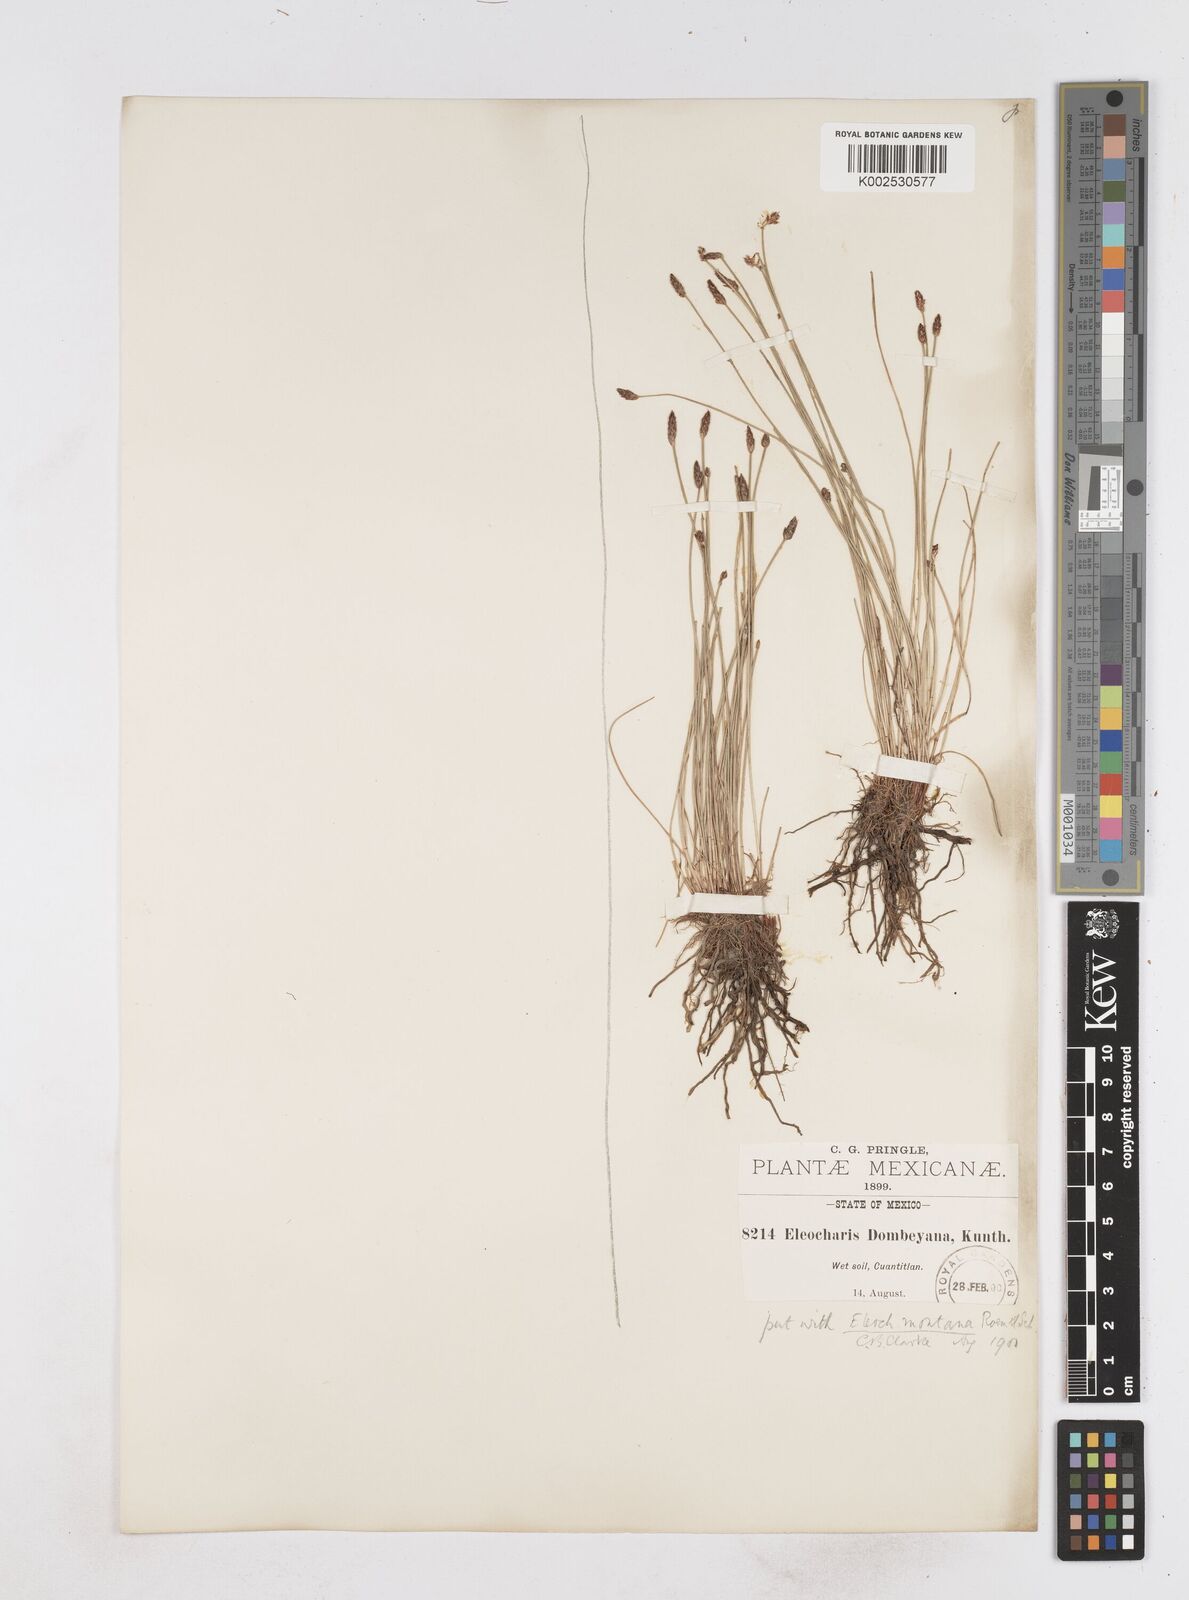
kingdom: Plantae
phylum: Tracheophyta
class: Liliopsida
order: Poales
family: Cyperaceae
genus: Eleocharis
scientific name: Eleocharis montana
